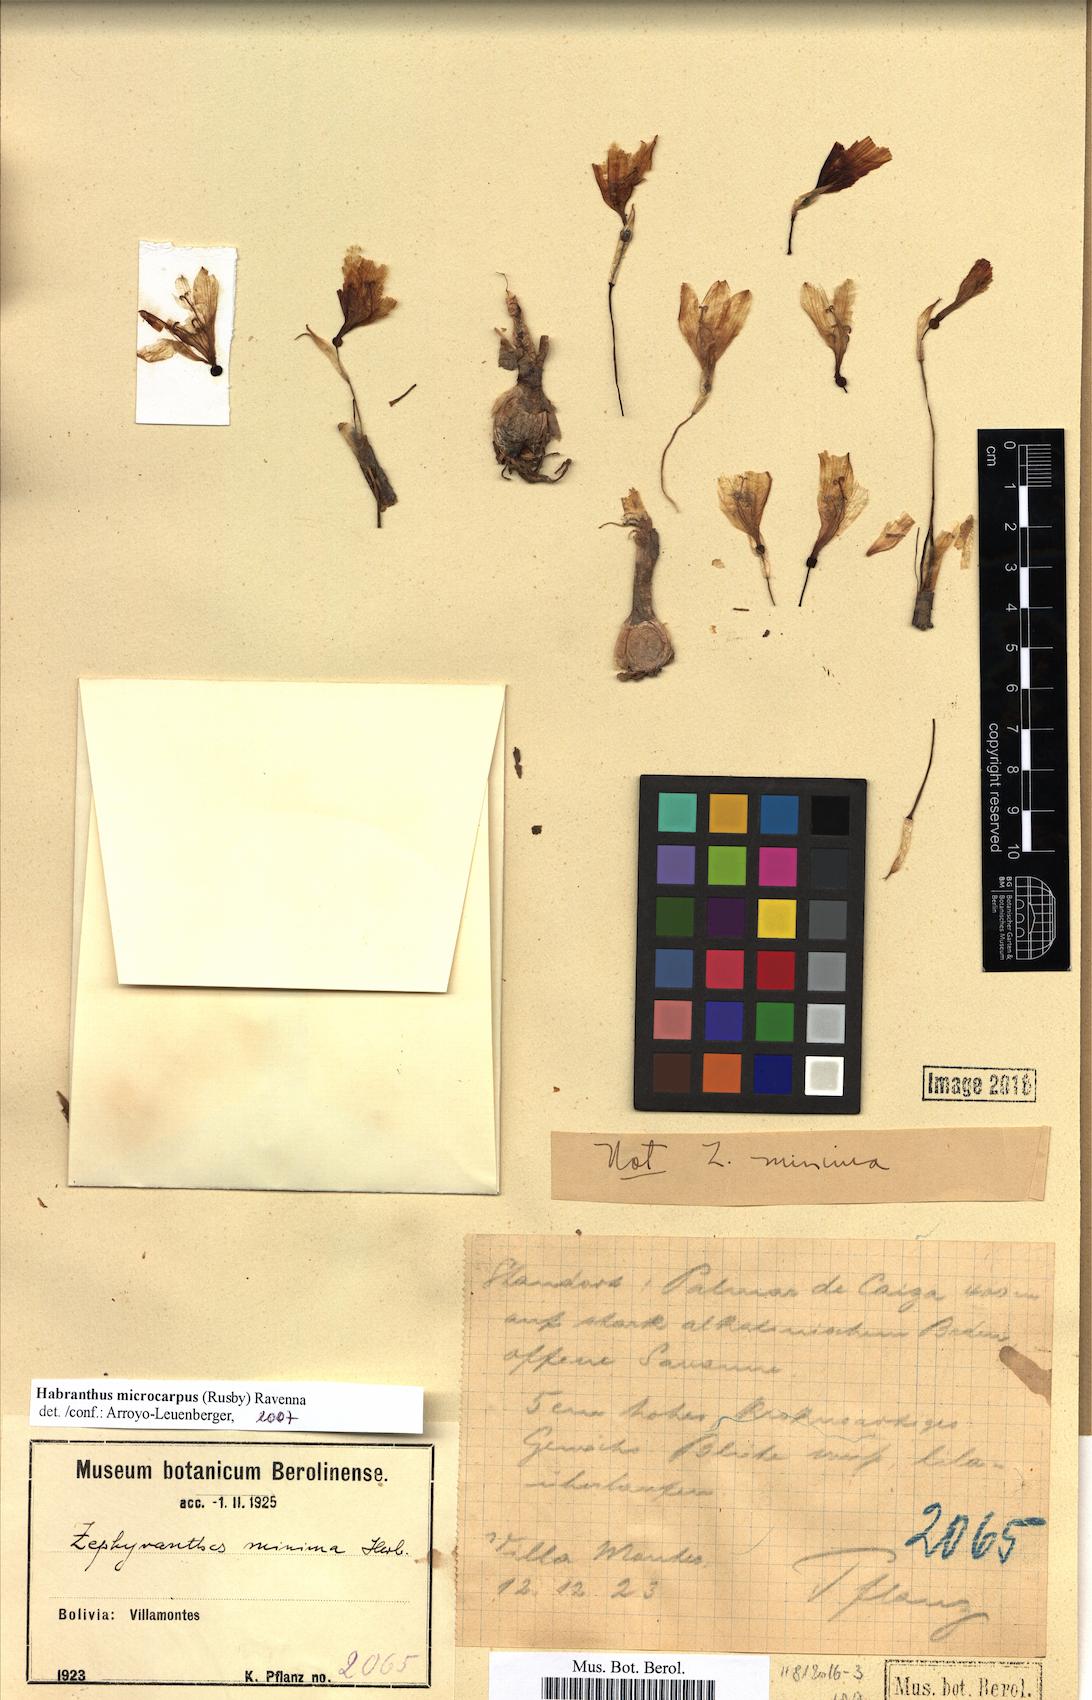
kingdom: Plantae
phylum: Tracheophyta
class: Liliopsida
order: Asparagales
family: Amaryllidaceae
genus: Zephyranthes
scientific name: Zephyranthes microcarpa
